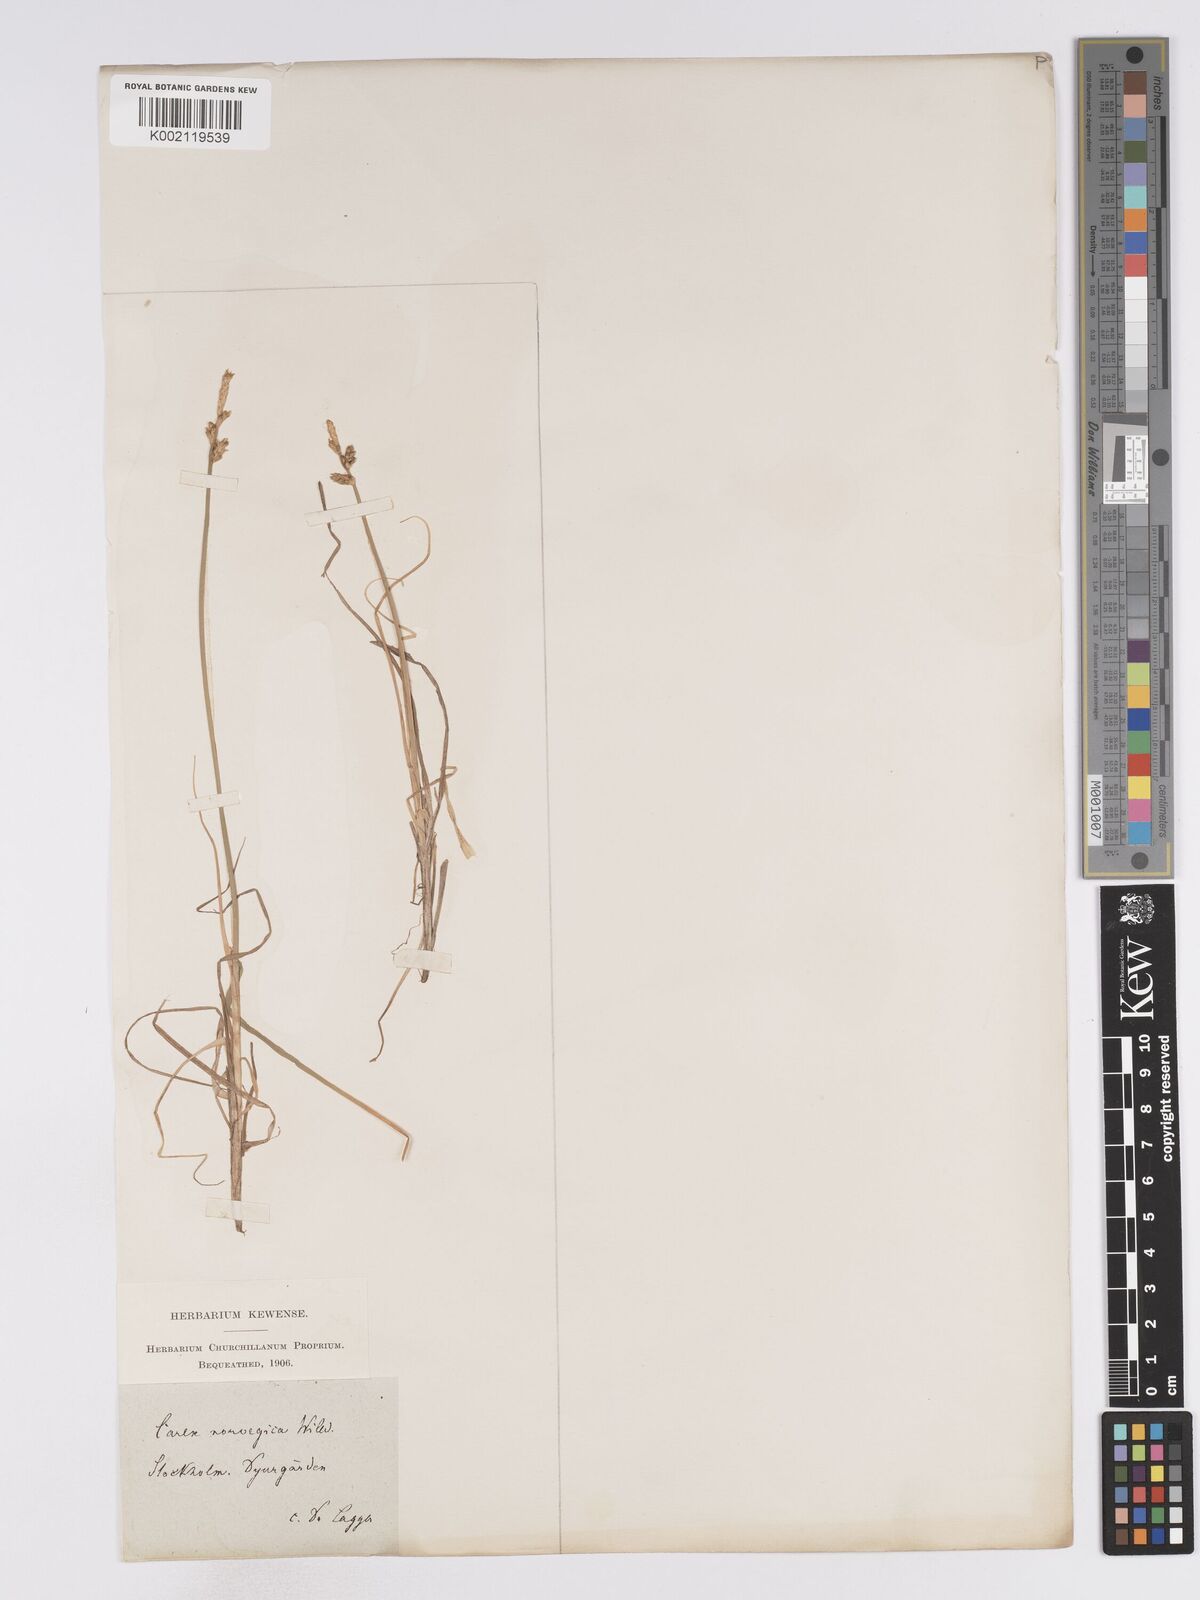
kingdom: Plantae
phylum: Tracheophyta
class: Liliopsida
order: Poales
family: Cyperaceae
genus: Carex
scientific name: Carex mackenziei
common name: Mackenzie's sedge
